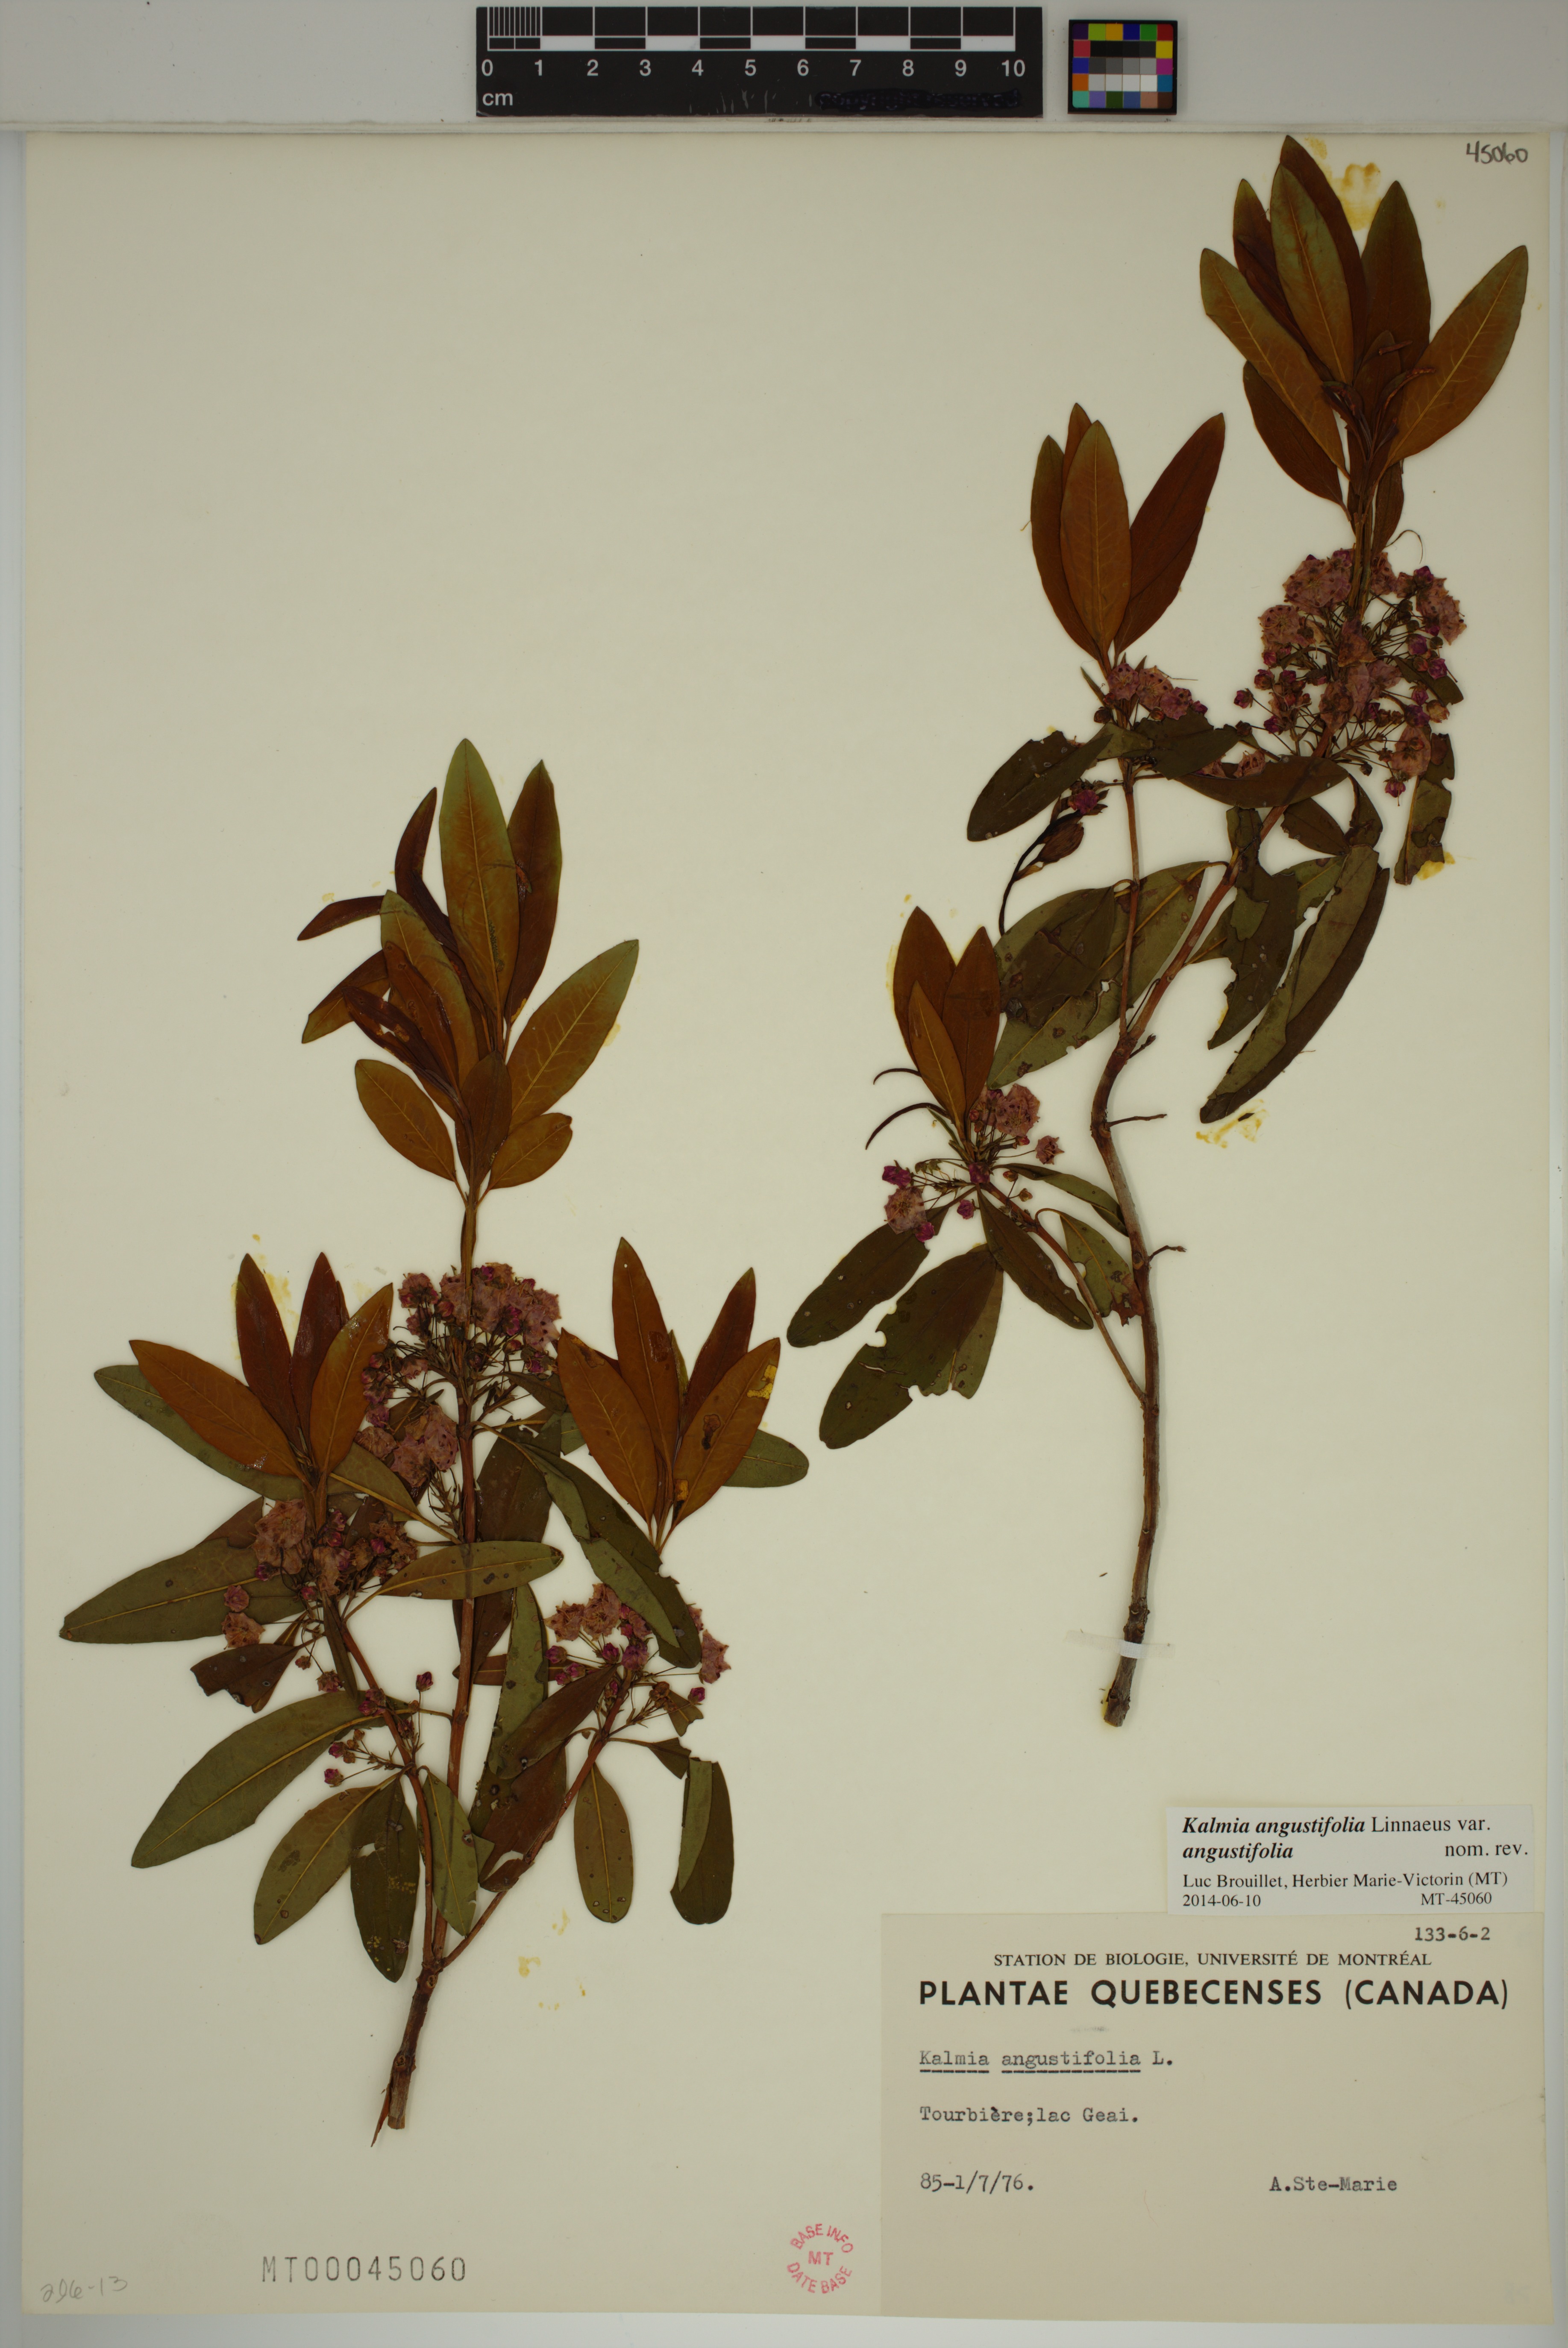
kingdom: Plantae
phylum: Tracheophyta
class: Magnoliopsida
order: Ericales
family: Ericaceae
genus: Kalmia
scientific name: Kalmia angustifolia
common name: Sheep-laurel
